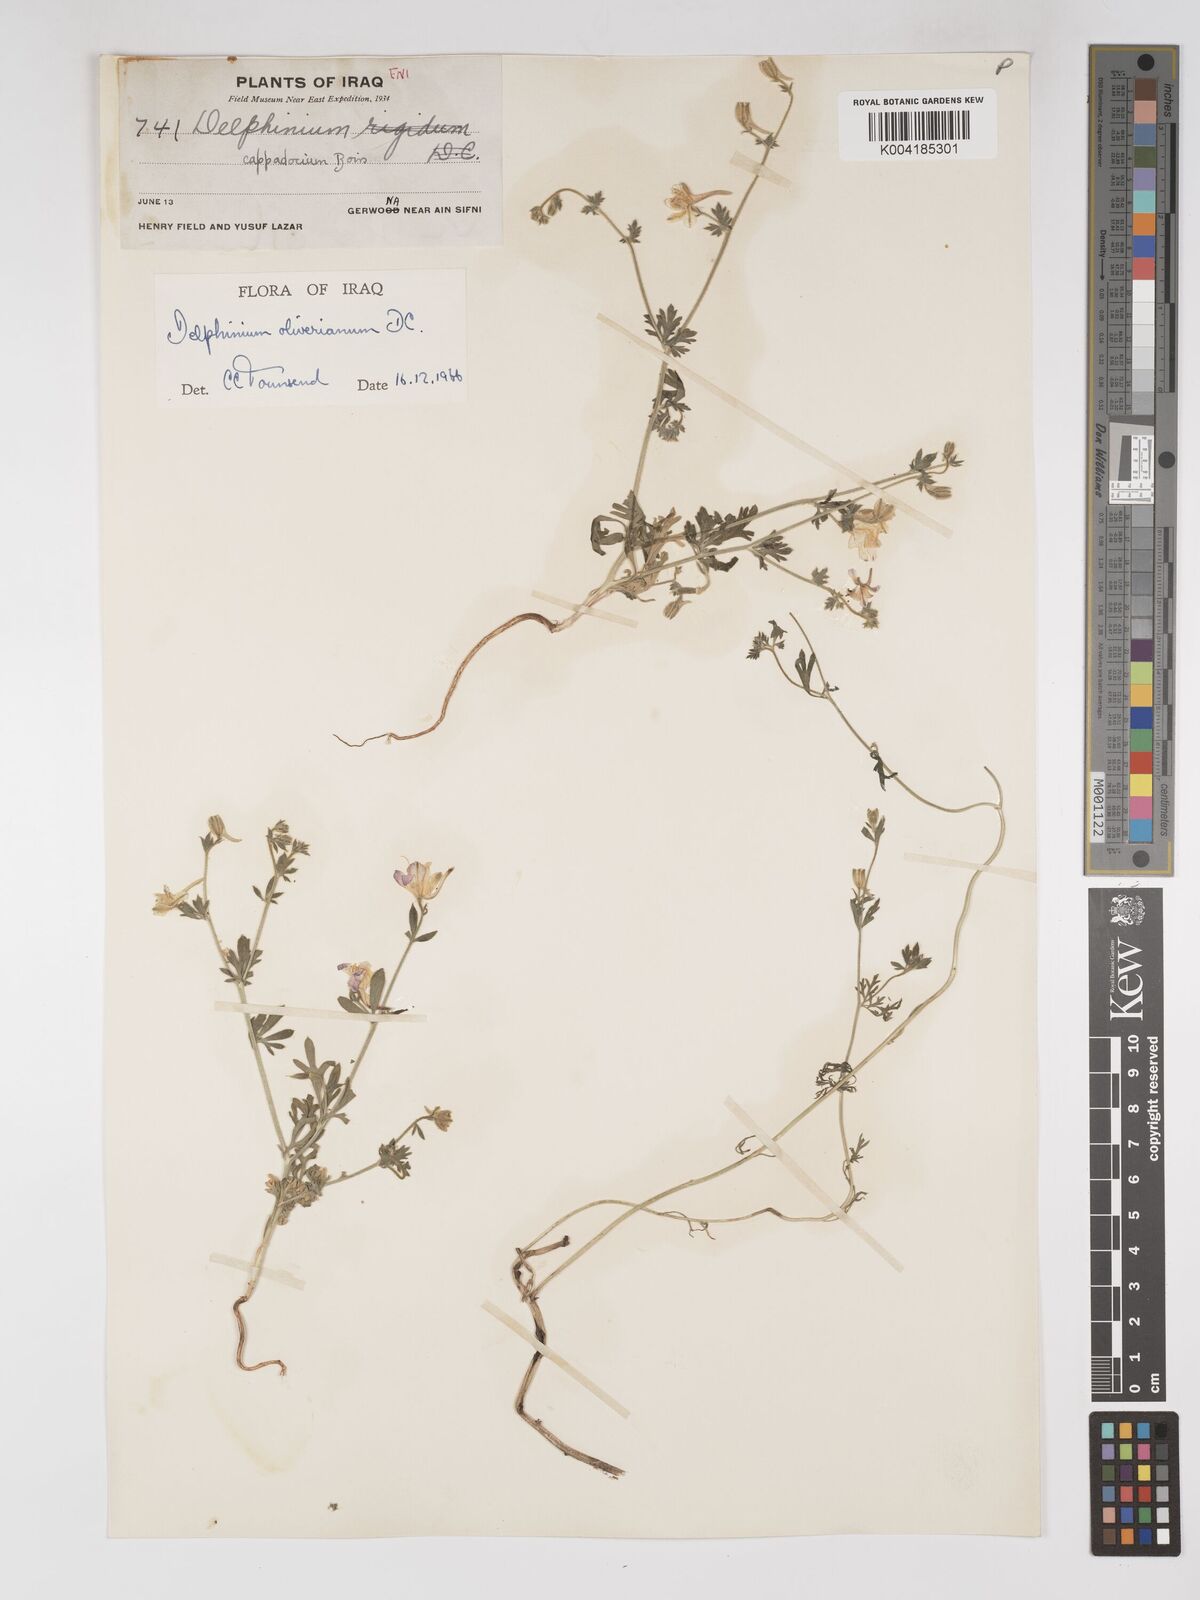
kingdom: Plantae
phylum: Tracheophyta
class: Magnoliopsida
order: Ranunculales
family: Ranunculaceae
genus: Delphinium
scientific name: Delphinium oliverianum
